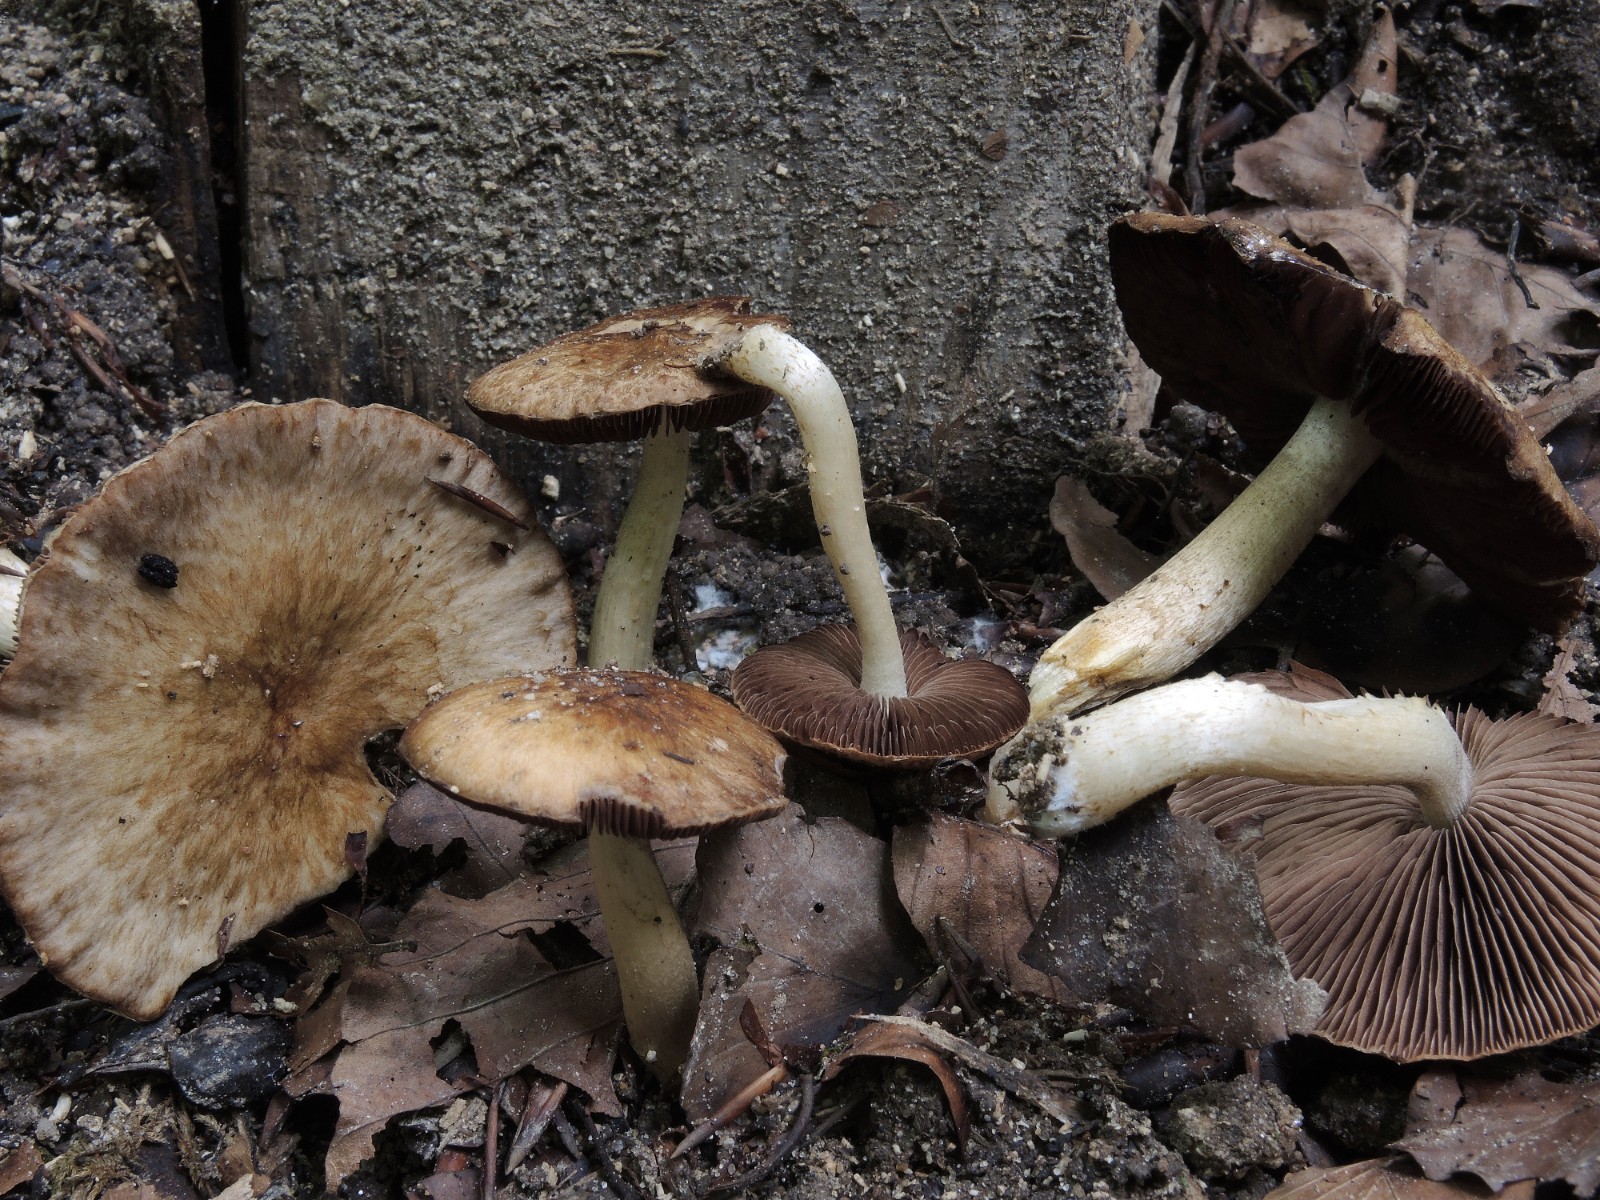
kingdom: Fungi
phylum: Basidiomycota
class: Agaricomycetes
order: Agaricales
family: Psathyrellaceae
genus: Cystoagaricus
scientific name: Cystoagaricus lepidotoides
